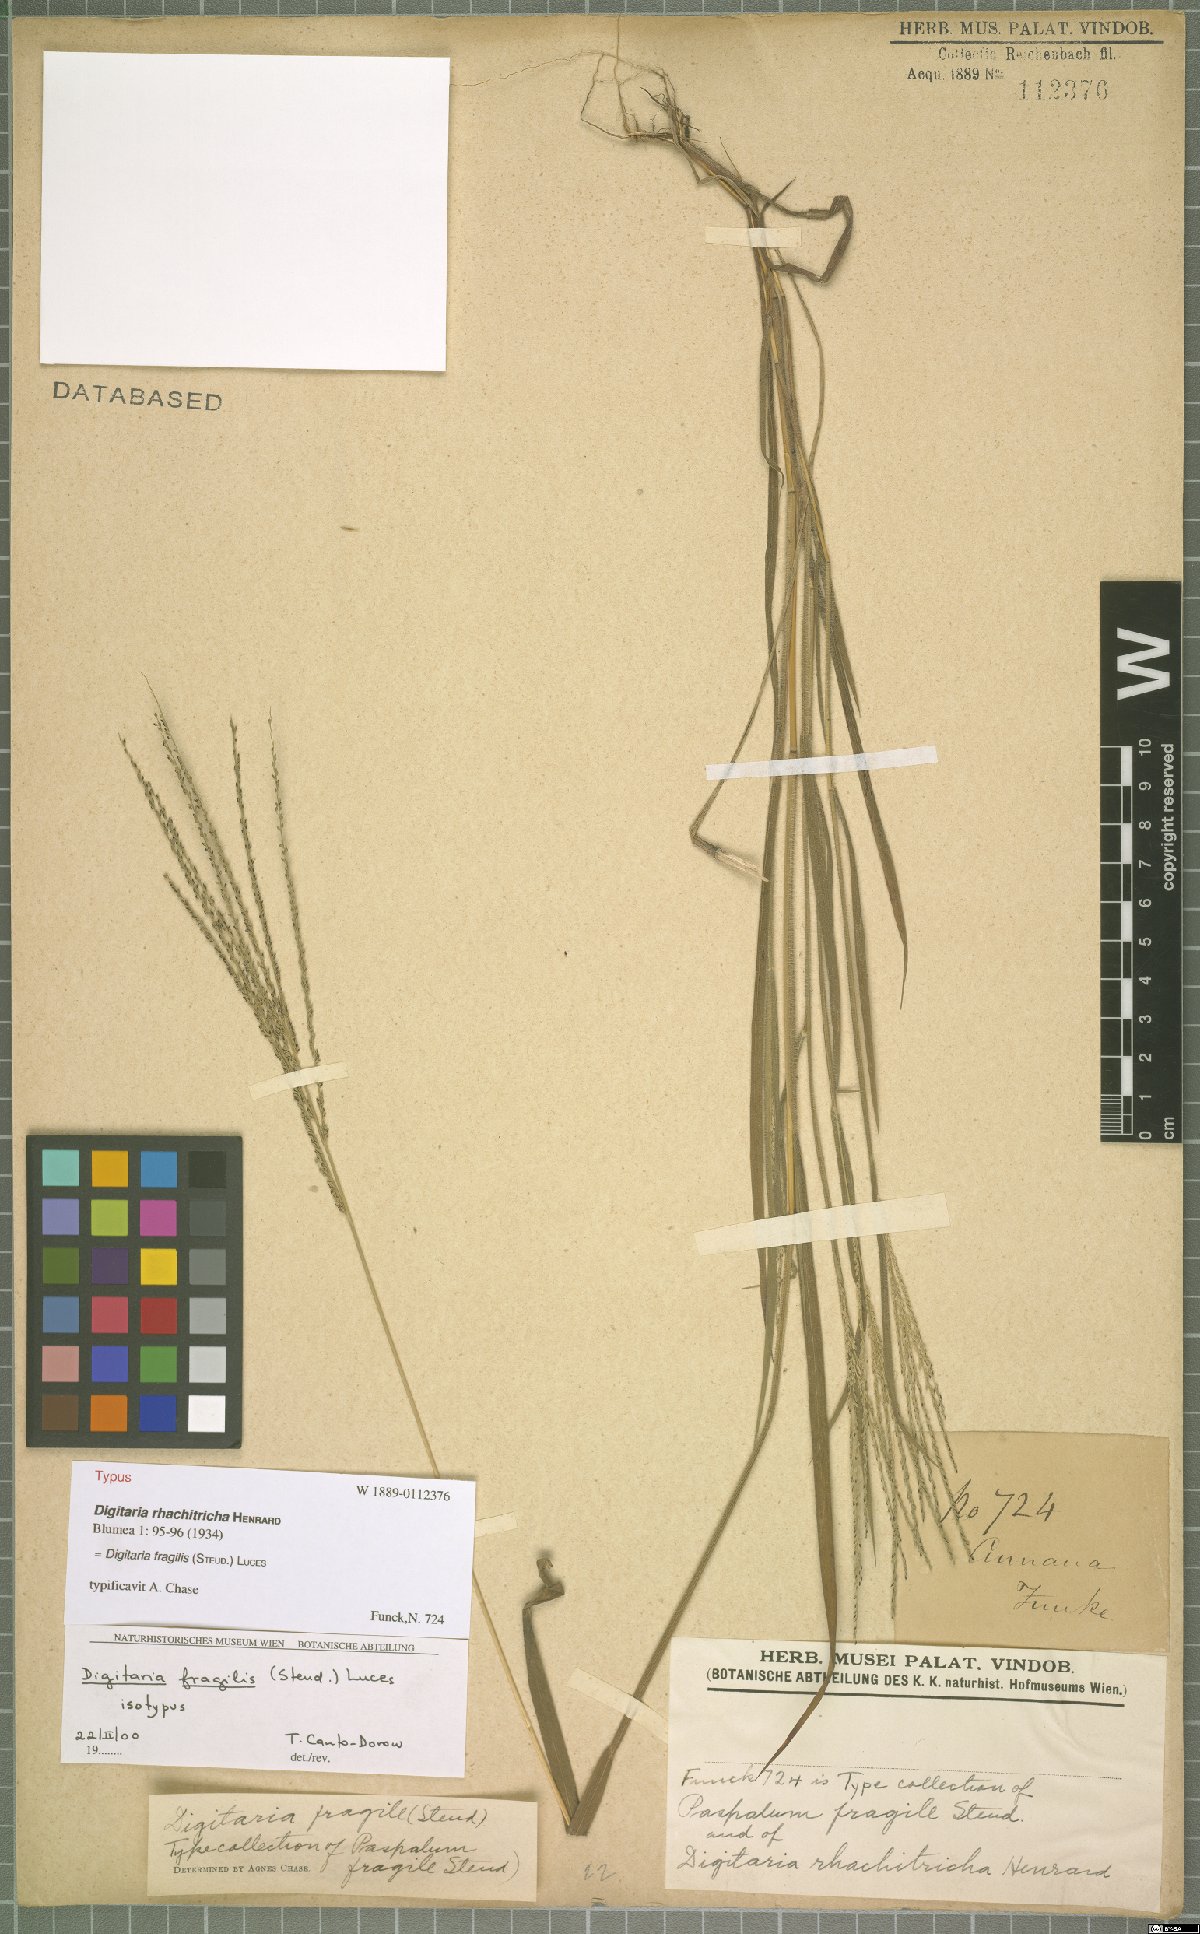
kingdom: Plantae
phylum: Tracheophyta
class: Liliopsida
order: Poales
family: Poaceae
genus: Digitaria
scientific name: Digitaria fragilis
